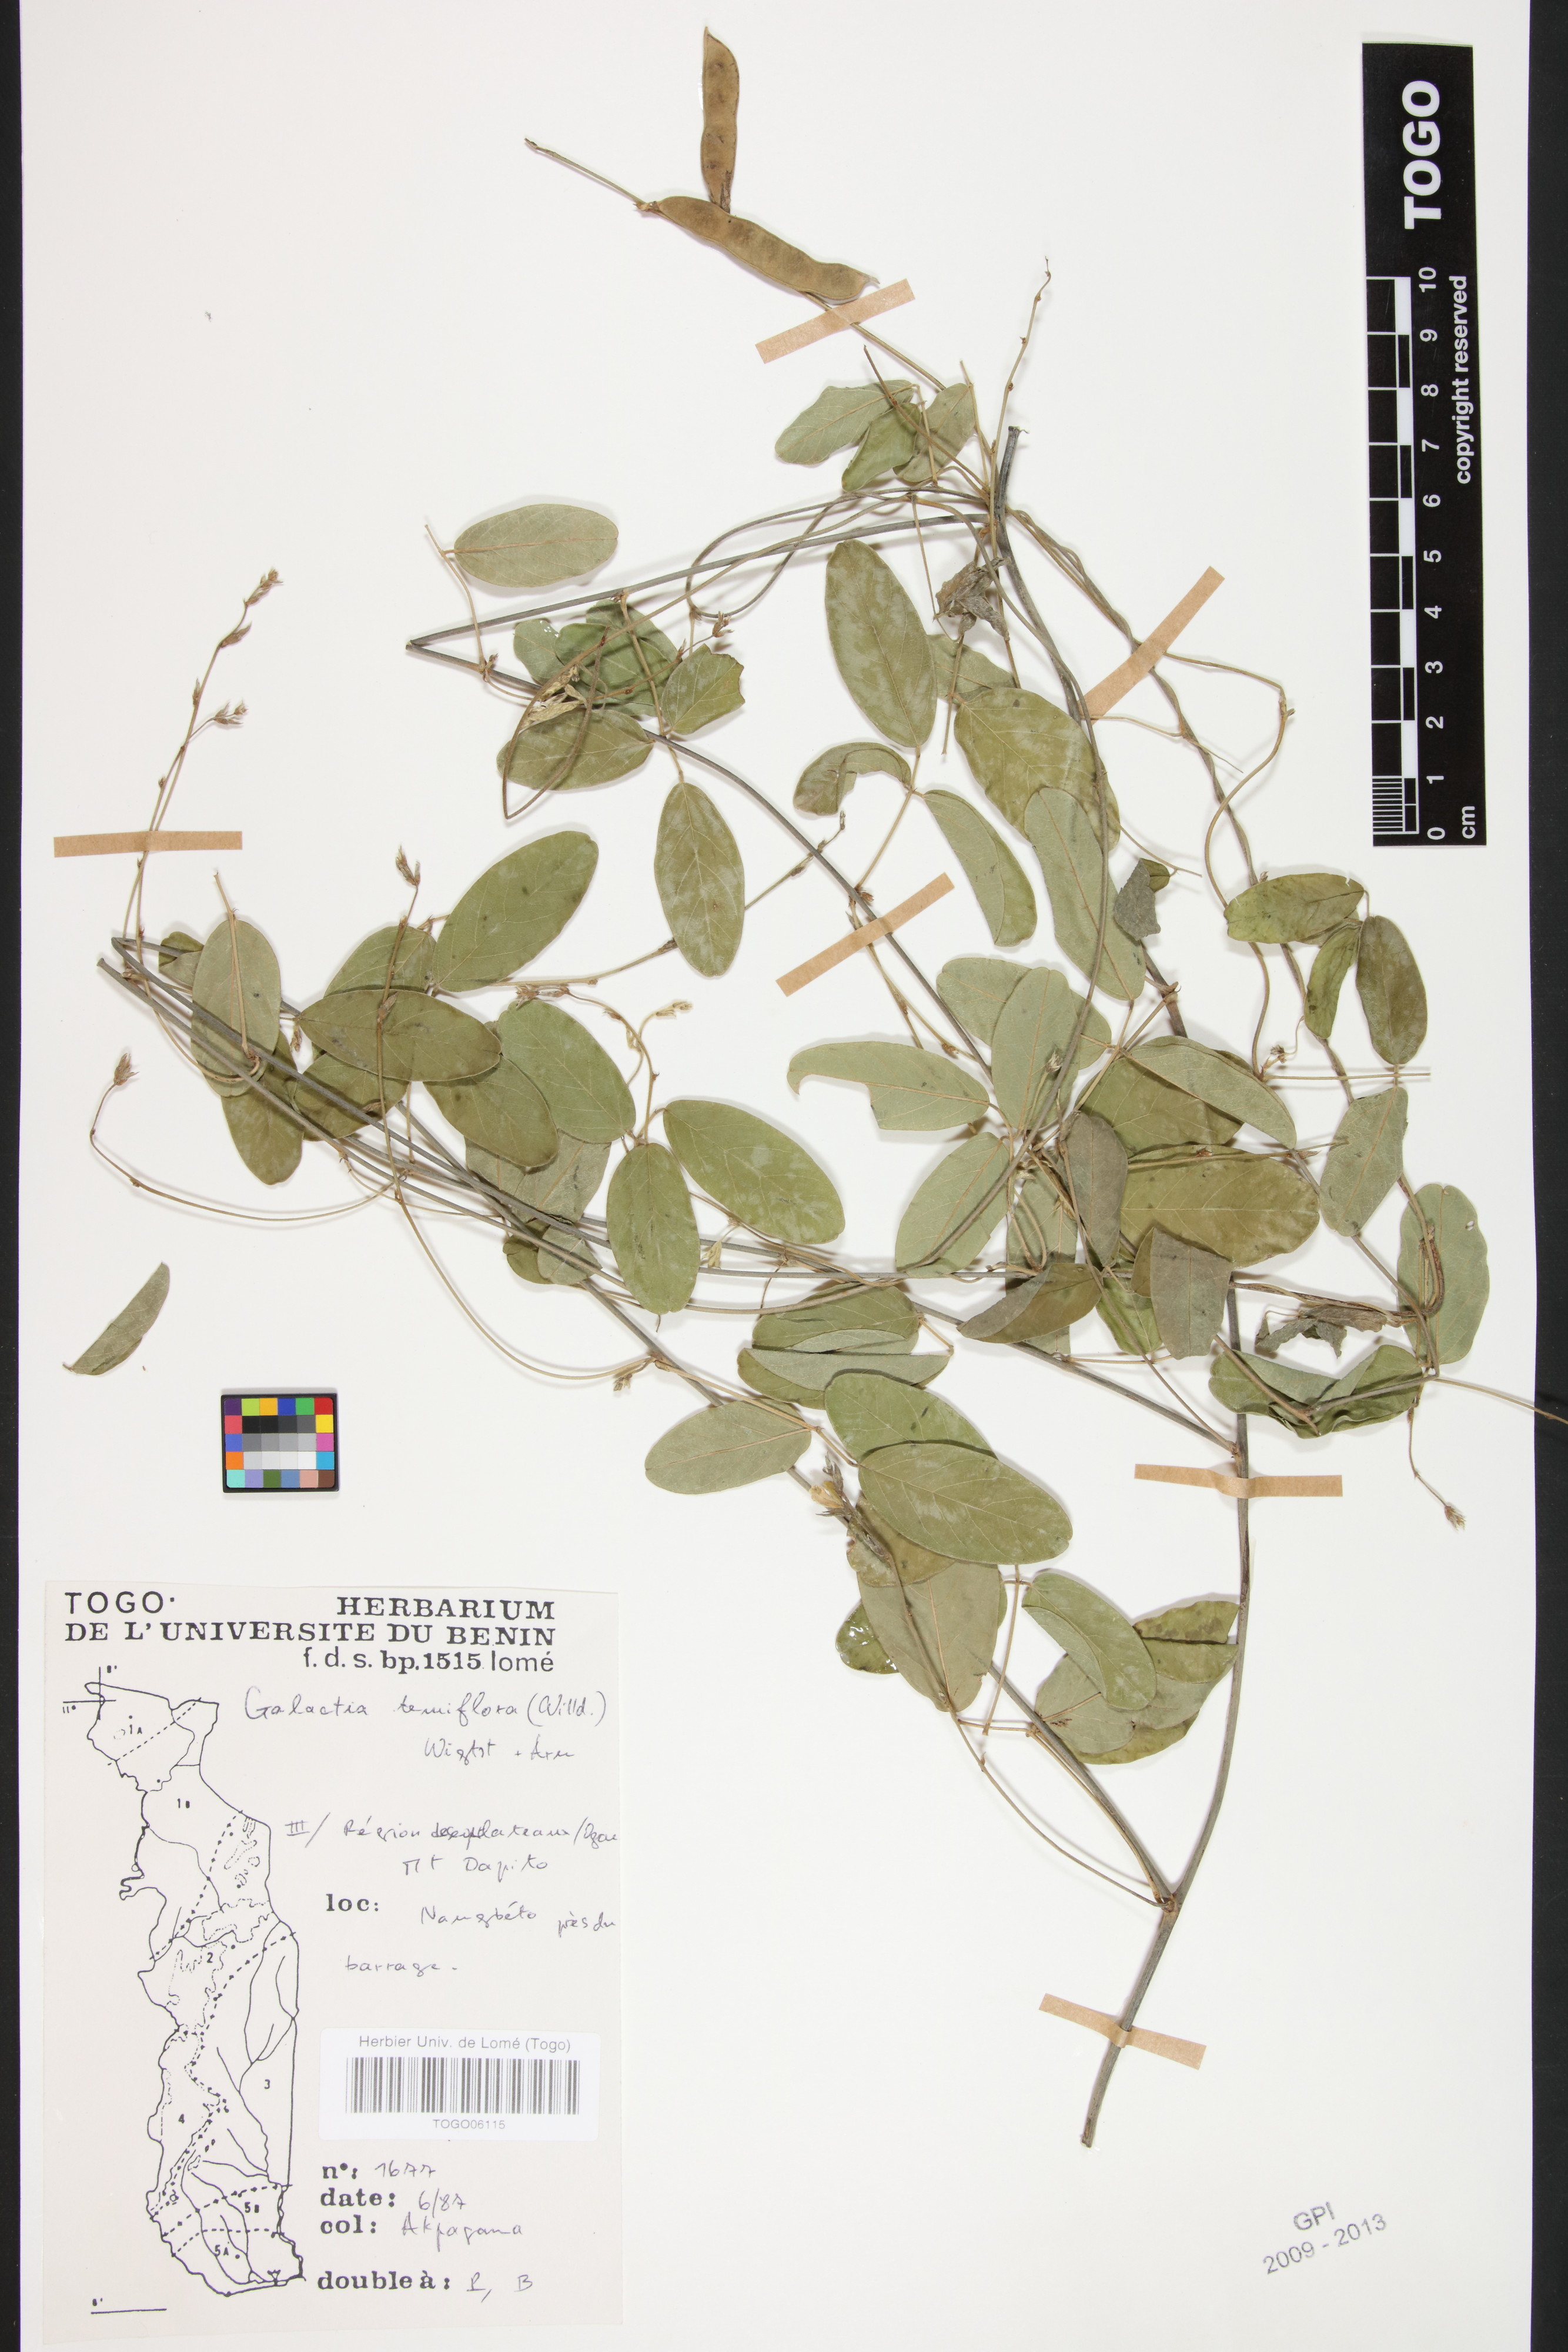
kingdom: Plantae
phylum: Tracheophyta
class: Magnoliopsida
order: Fabales
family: Fabaceae
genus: Galactia
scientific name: Galactia striata
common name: Florida hammock milkpea
